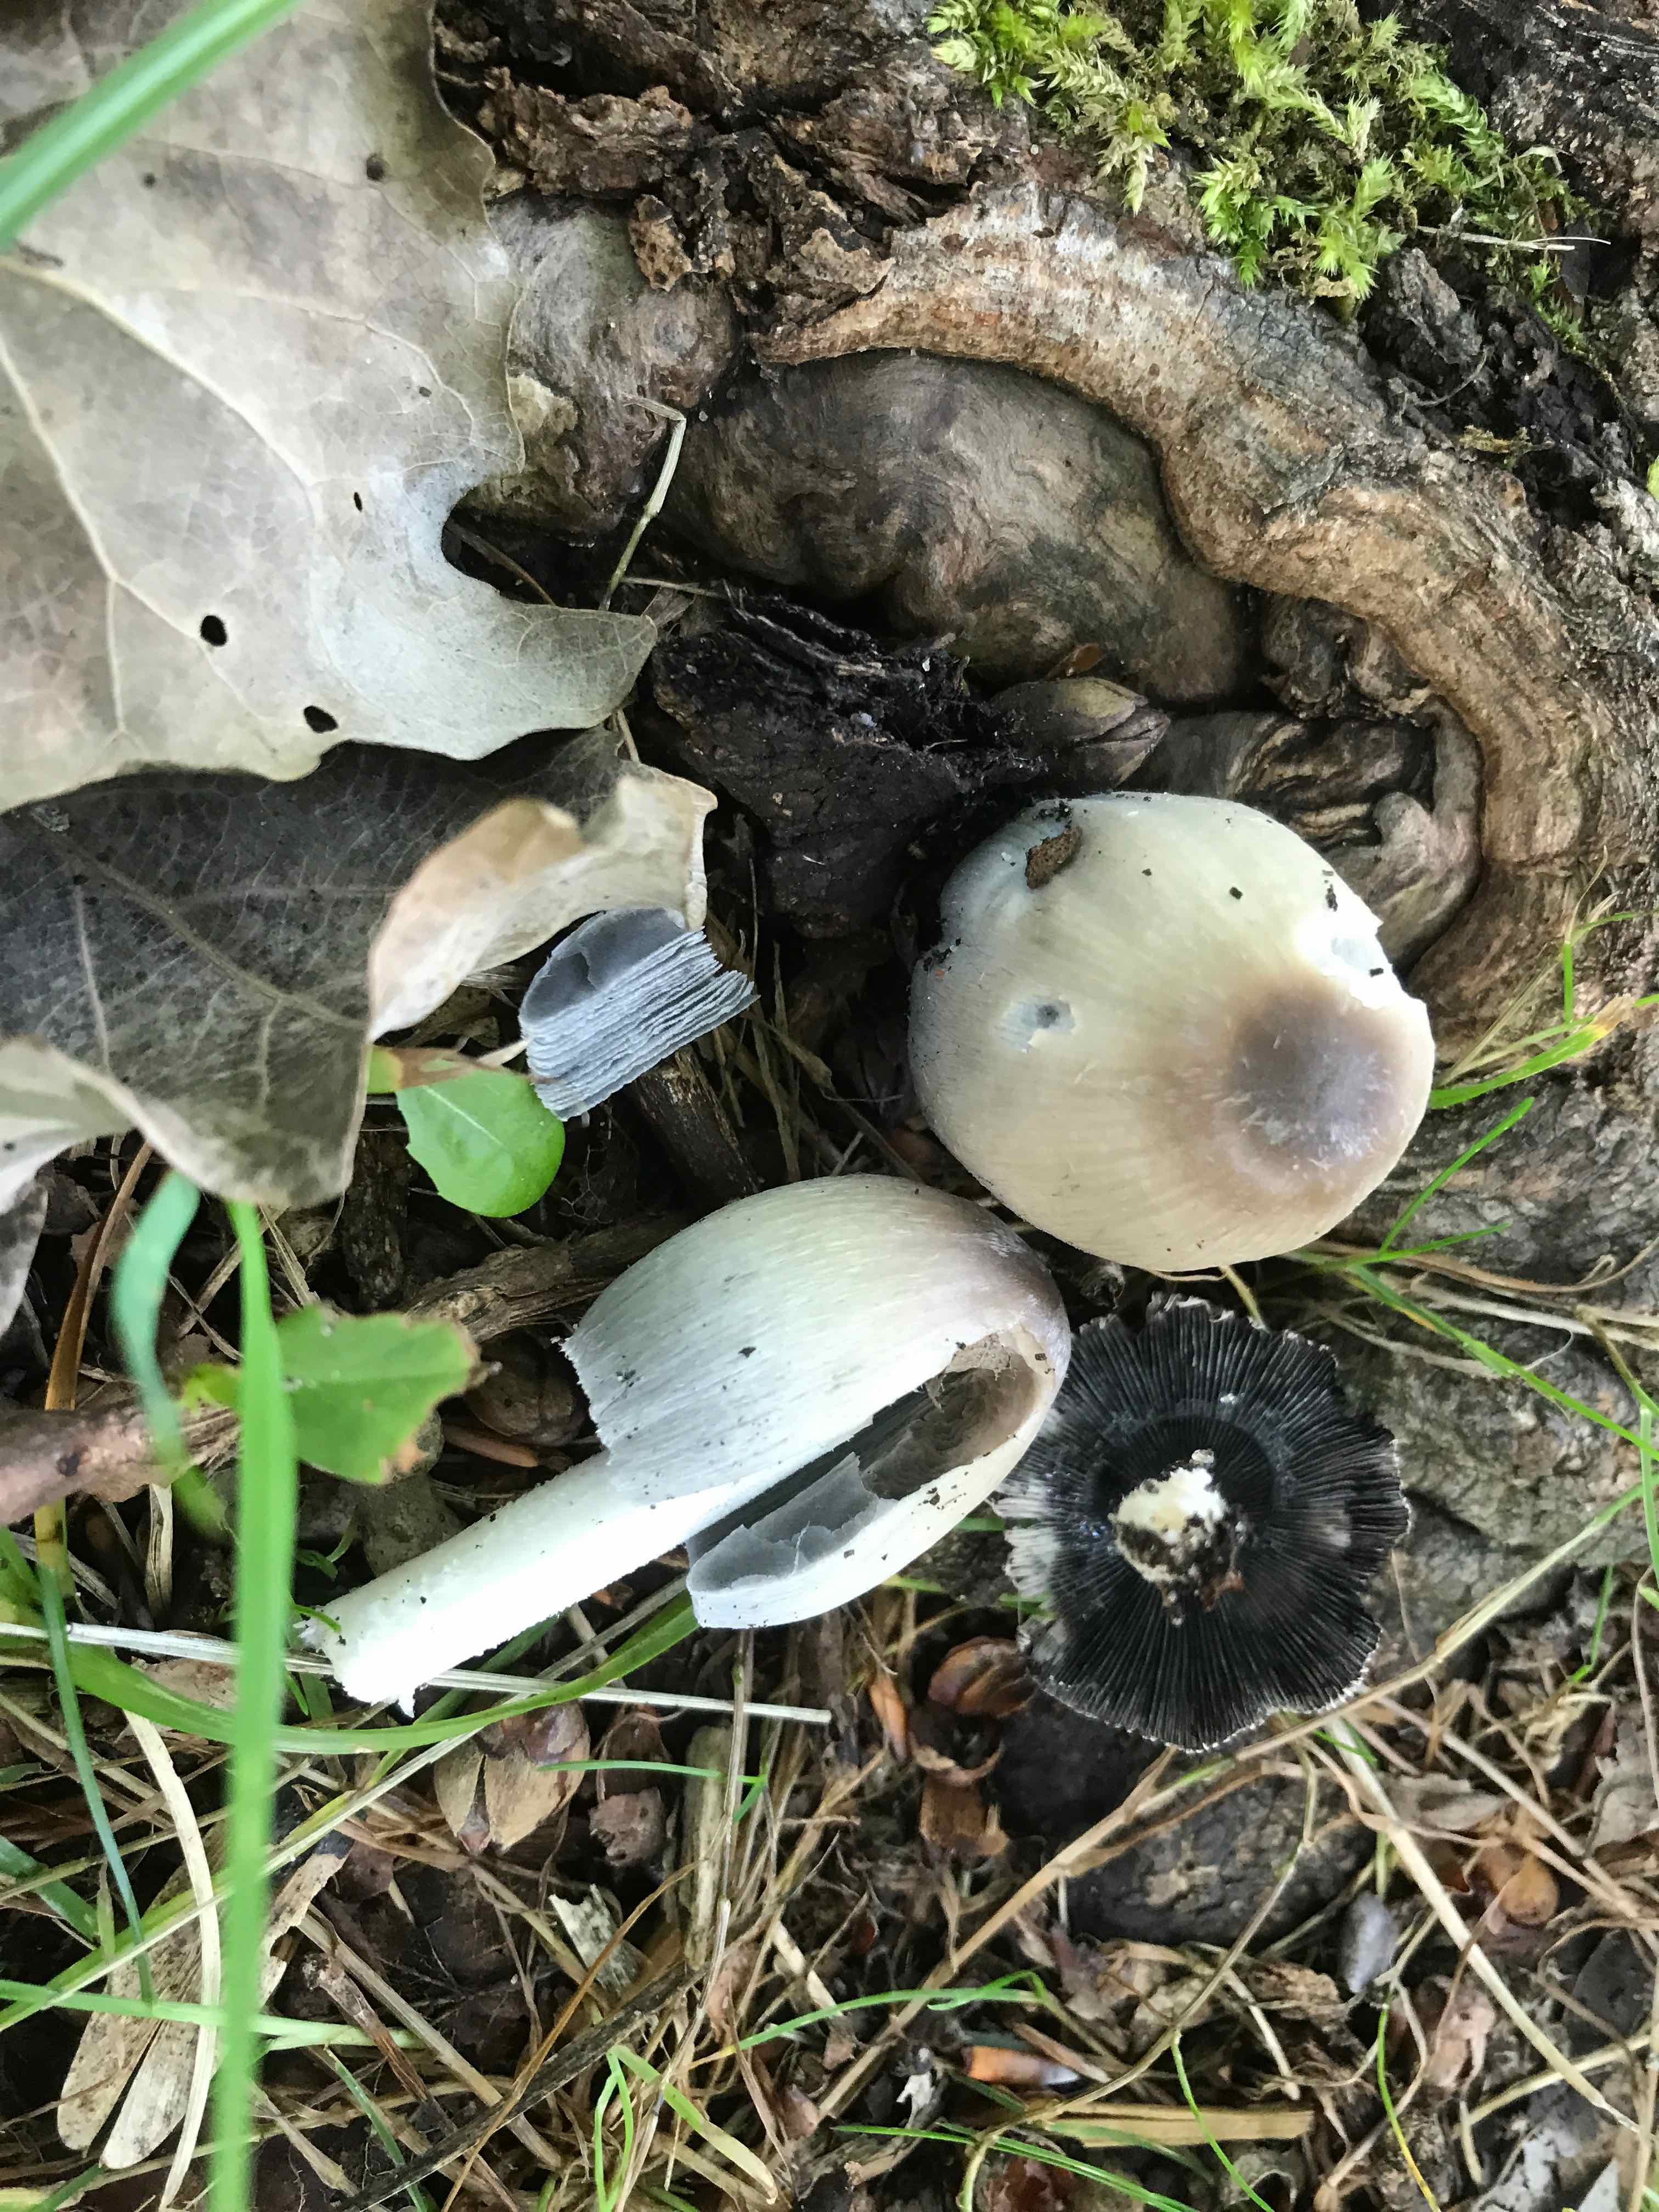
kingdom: Fungi
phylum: Basidiomycota
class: Agaricomycetes
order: Agaricales
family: Psathyrellaceae
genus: Coprinopsis
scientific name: Coprinopsis
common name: blækhat
